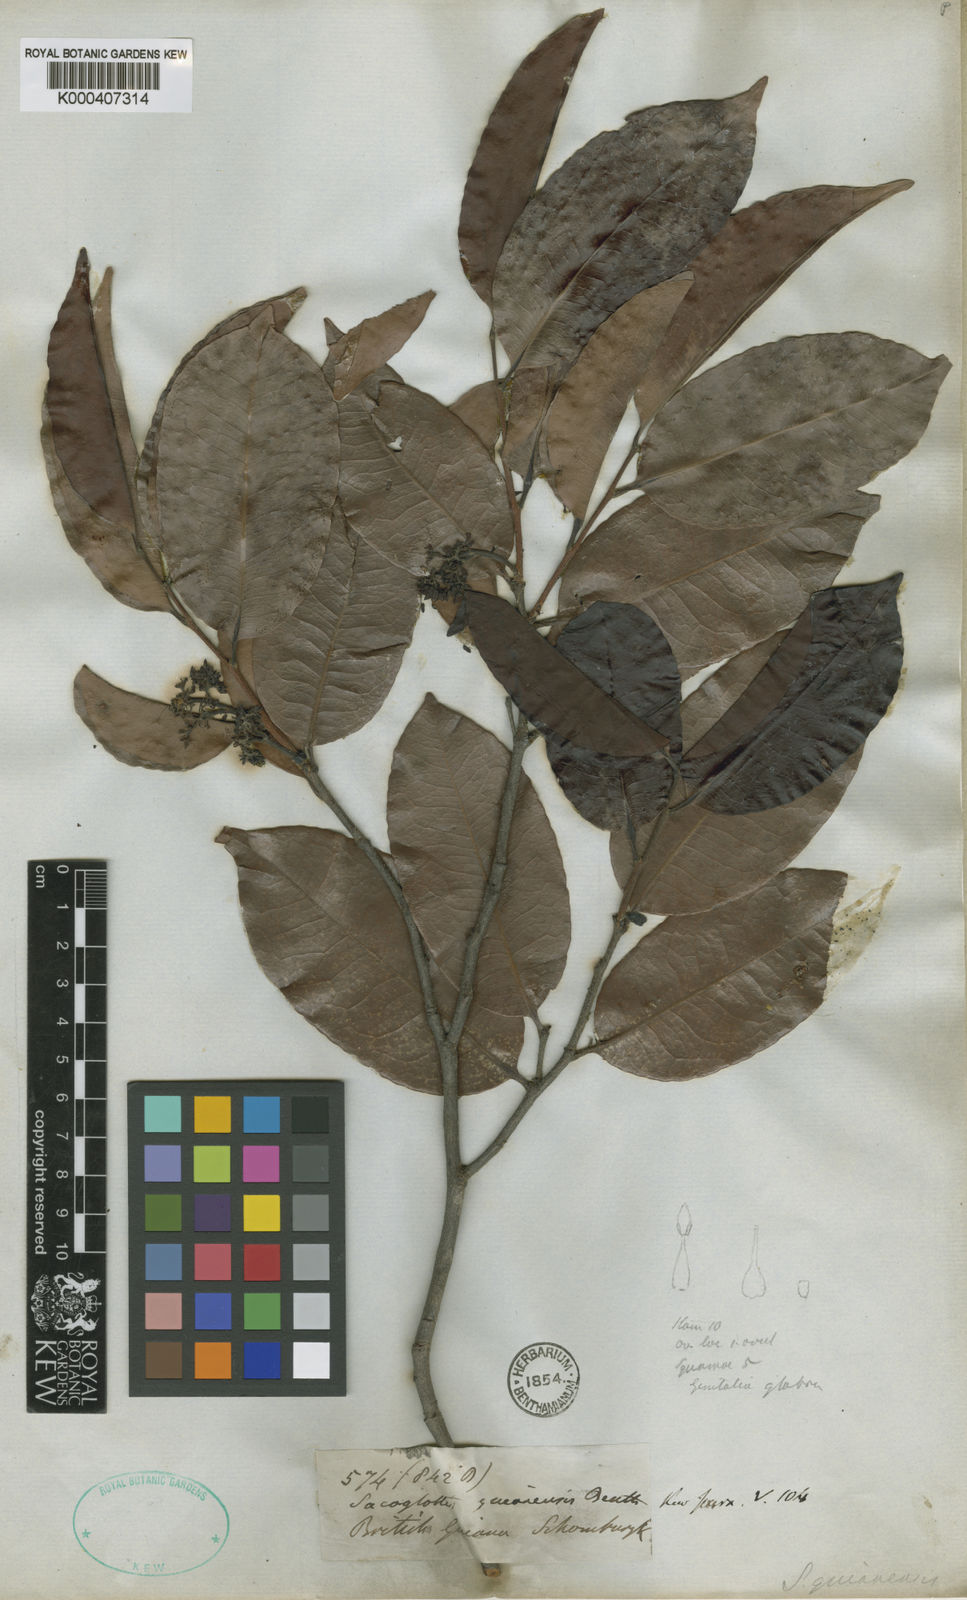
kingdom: Plantae
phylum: Tracheophyta
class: Magnoliopsida
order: Malpighiales
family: Humiriaceae
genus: Sacoglottis
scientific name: Sacoglottis guianensis
